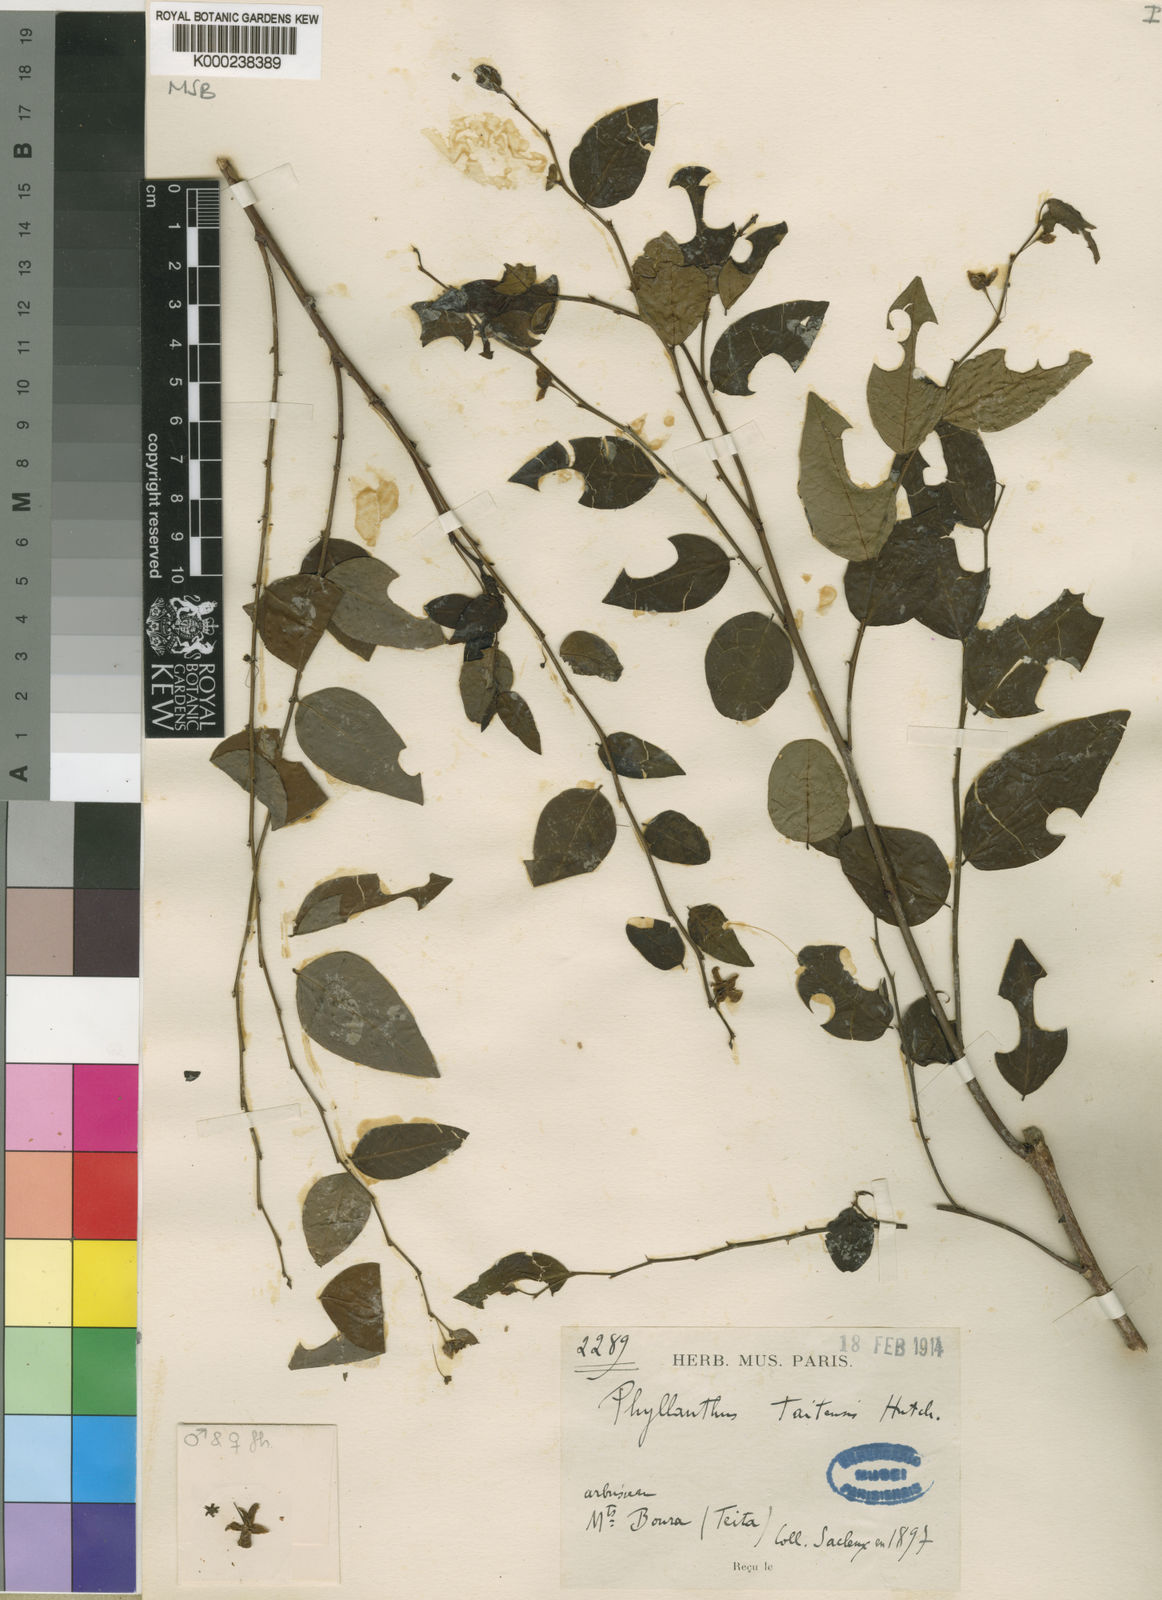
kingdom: Plantae
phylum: Tracheophyta
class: Magnoliopsida
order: Malpighiales
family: Phyllanthaceae
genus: Phyllanthus
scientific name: Phyllanthus
